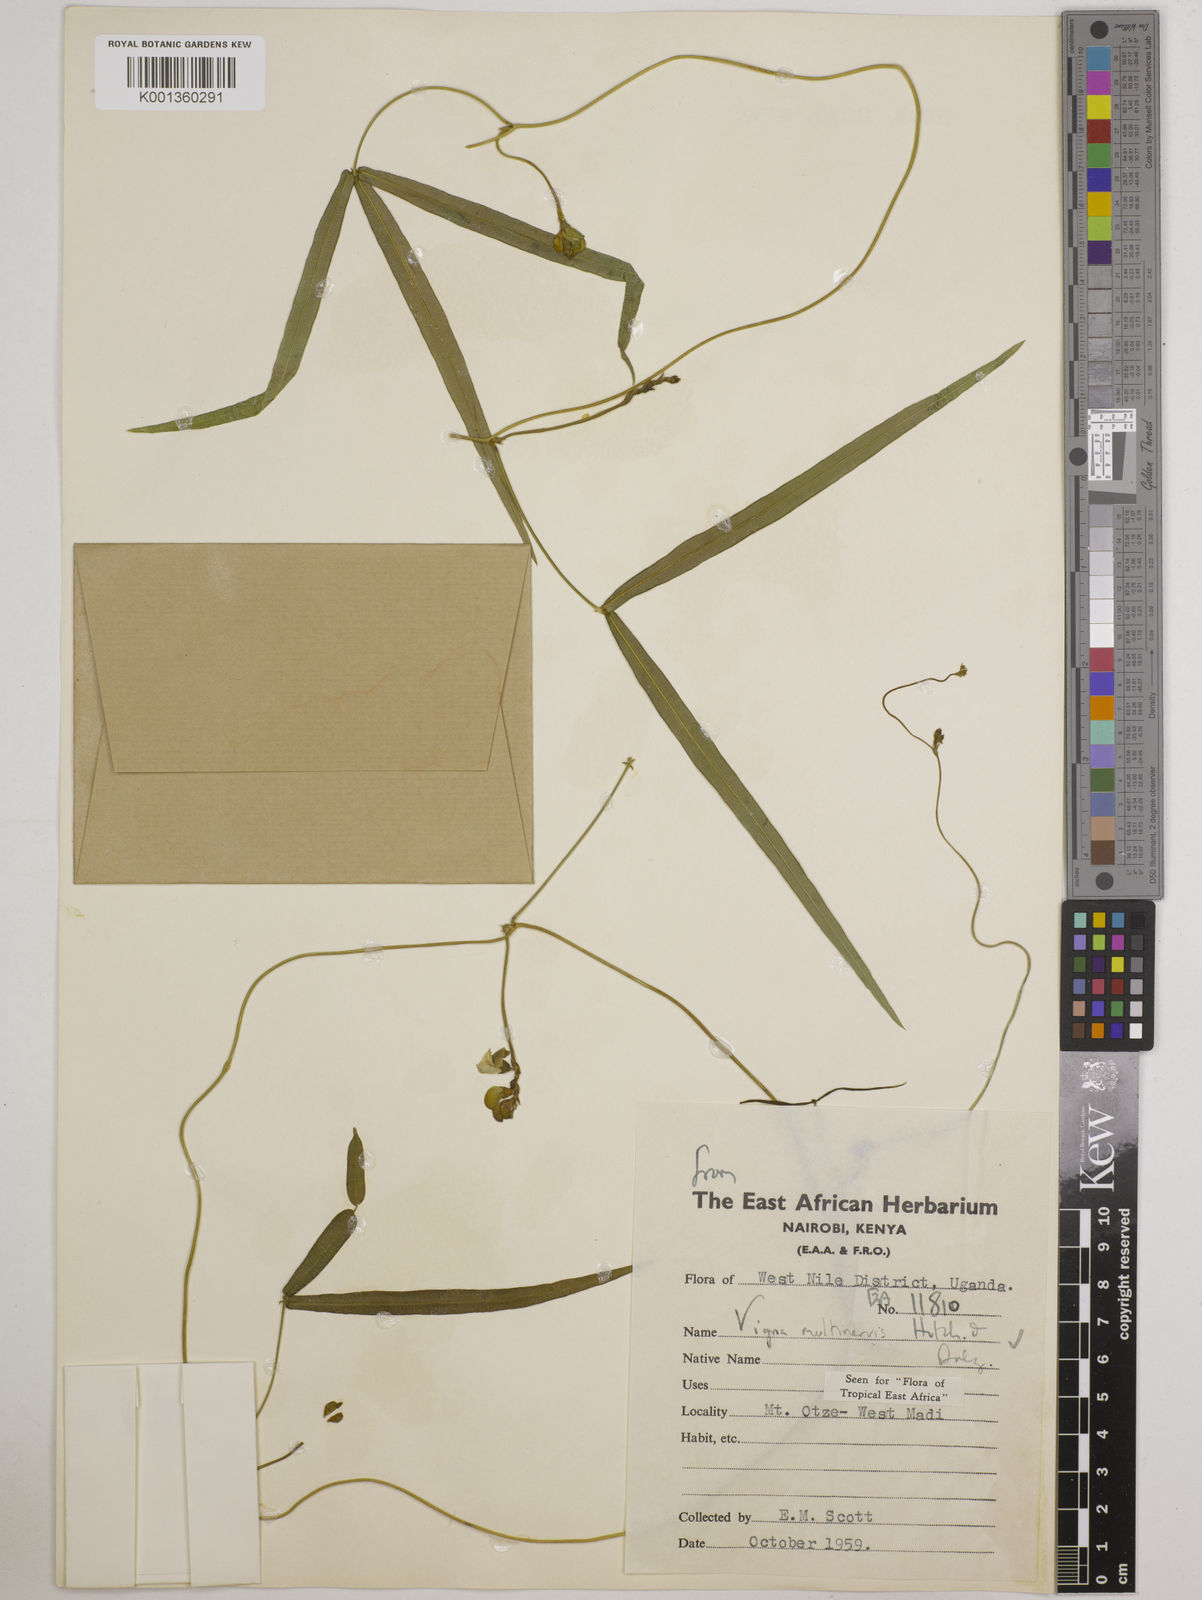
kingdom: Plantae
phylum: Tracheophyta
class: Magnoliopsida
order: Fabales
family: Fabaceae
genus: Vigna
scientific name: Vigna multinervis
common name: Fula-pulaar
